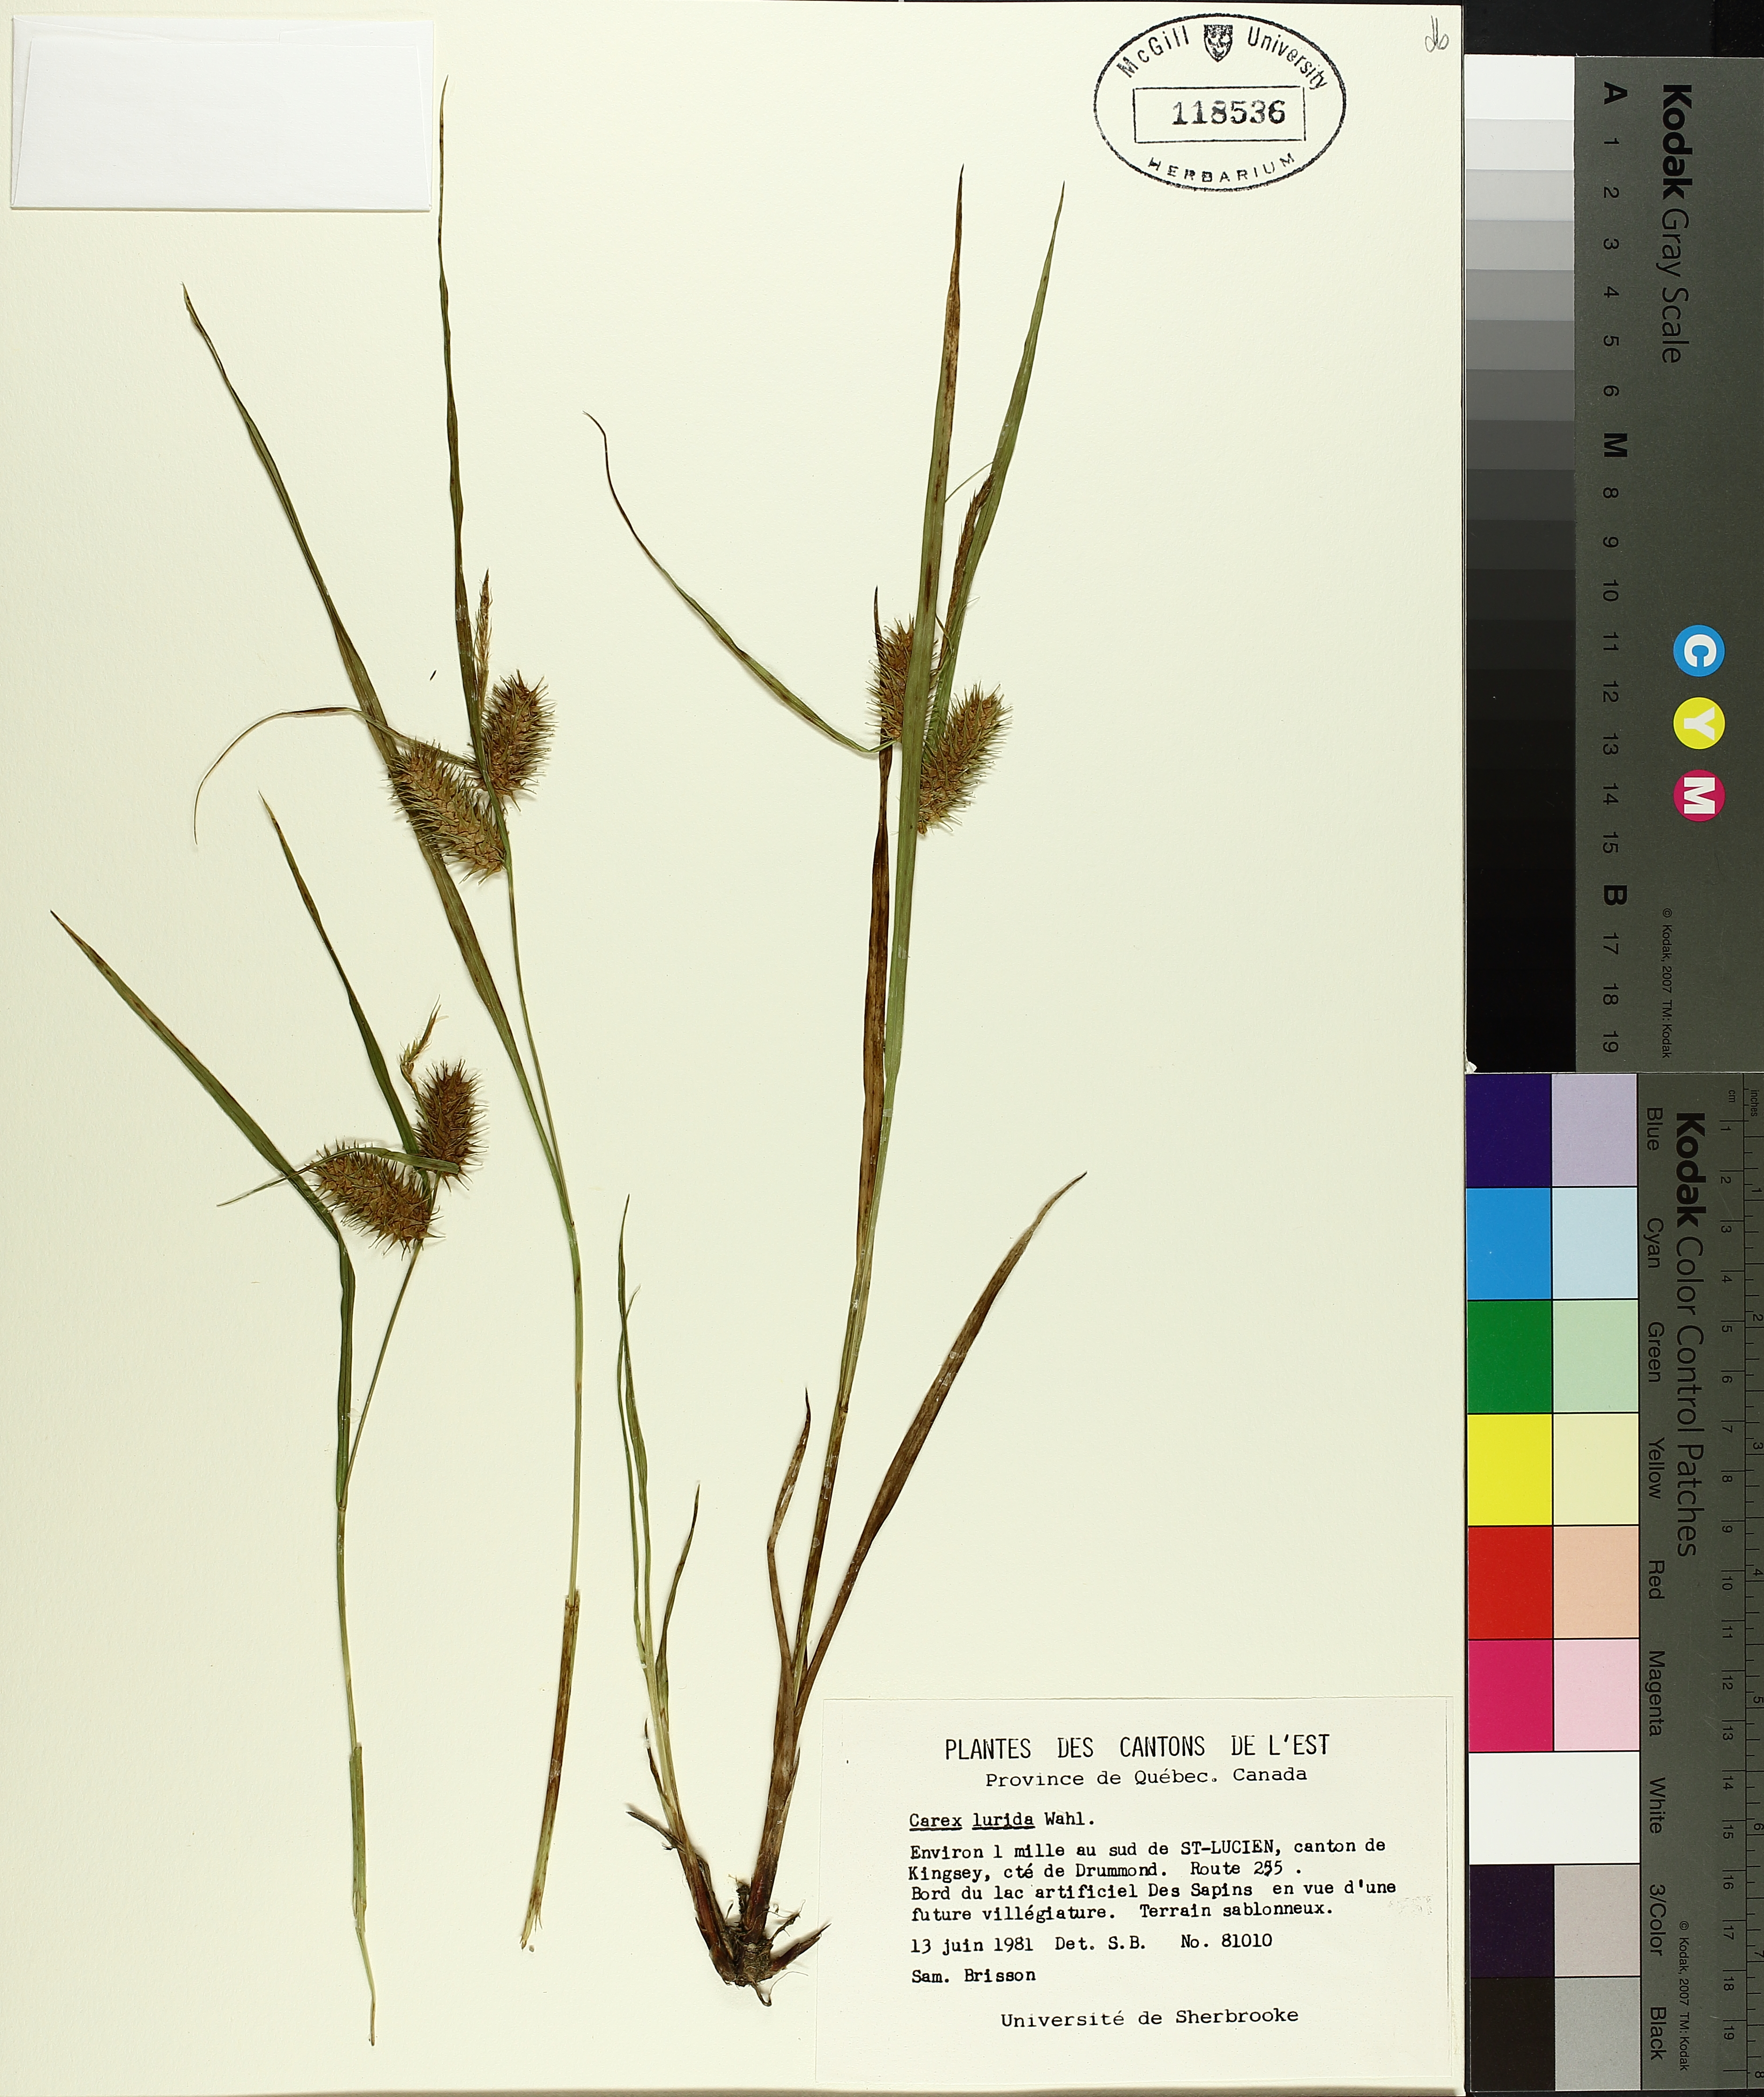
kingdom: Plantae
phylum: Tracheophyta
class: Liliopsida
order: Poales
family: Cyperaceae
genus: Carex
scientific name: Carex lurida
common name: Sallow sedge
